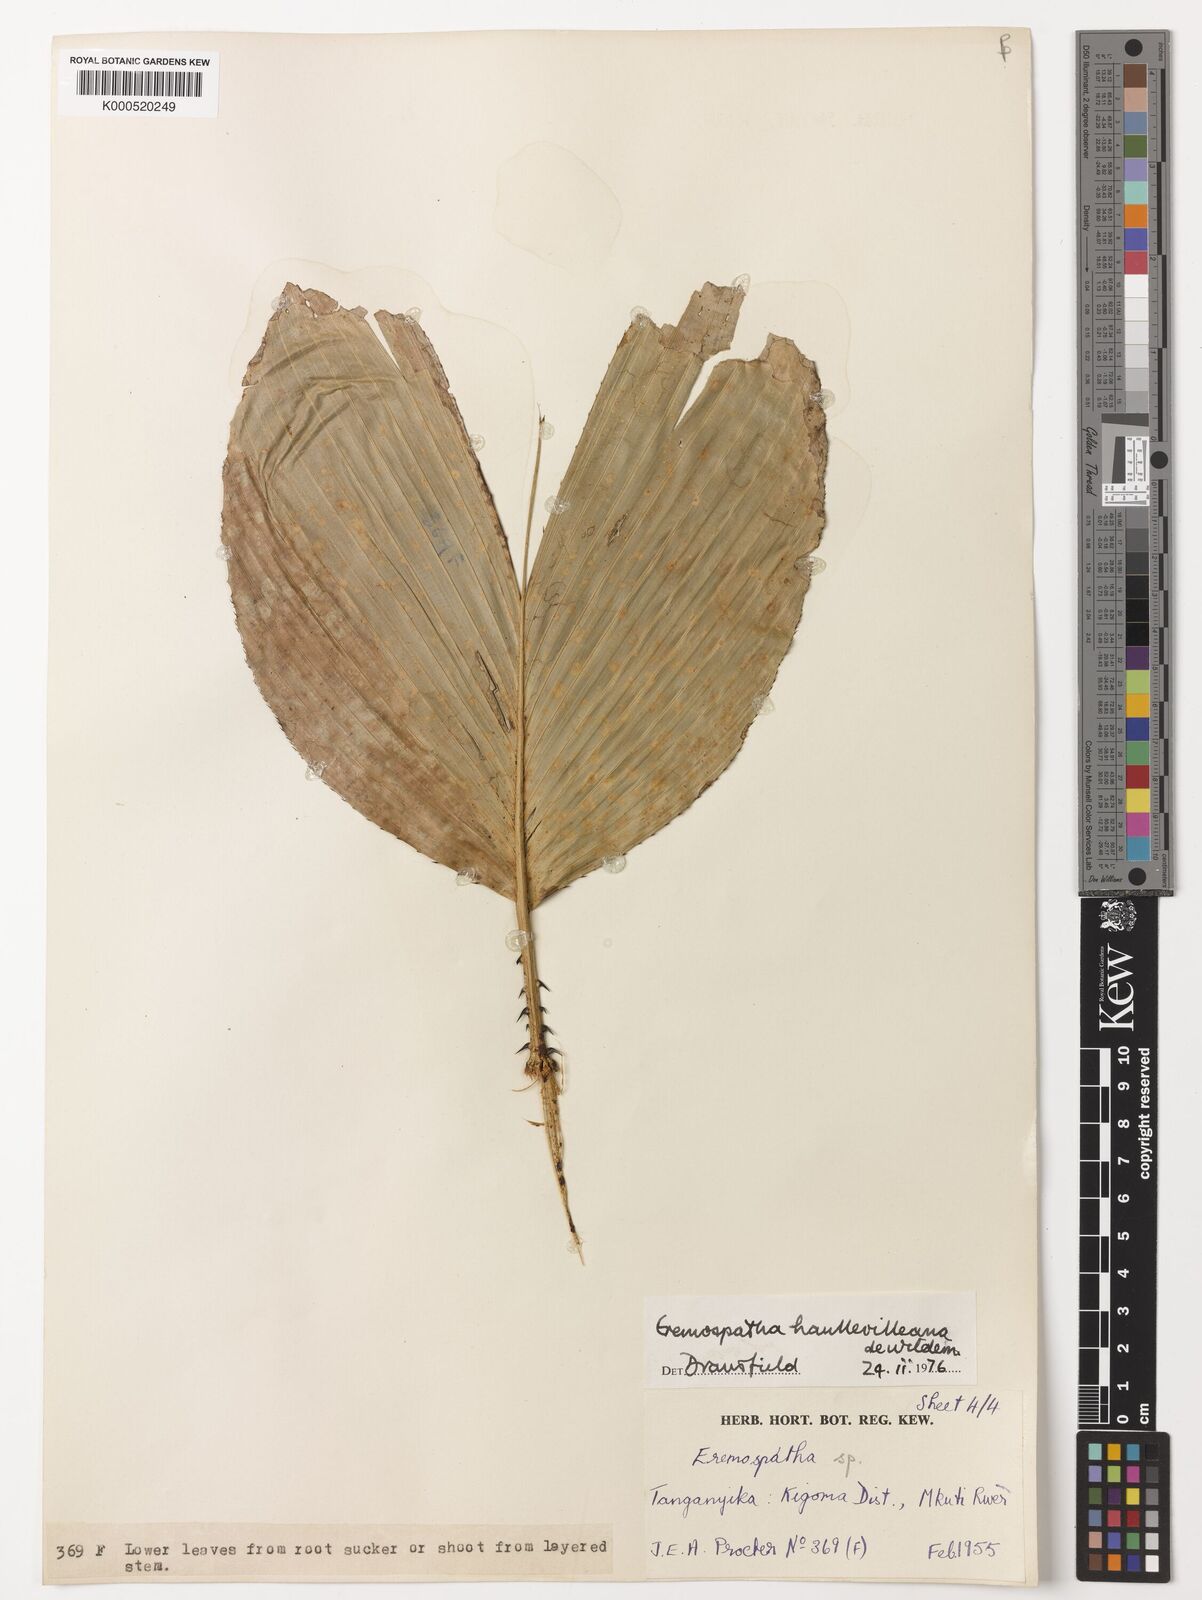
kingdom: Plantae
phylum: Tracheophyta
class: Liliopsida
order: Arecales
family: Arecaceae
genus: Eremospatha
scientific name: Eremospatha haullevilleana
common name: Rattan
